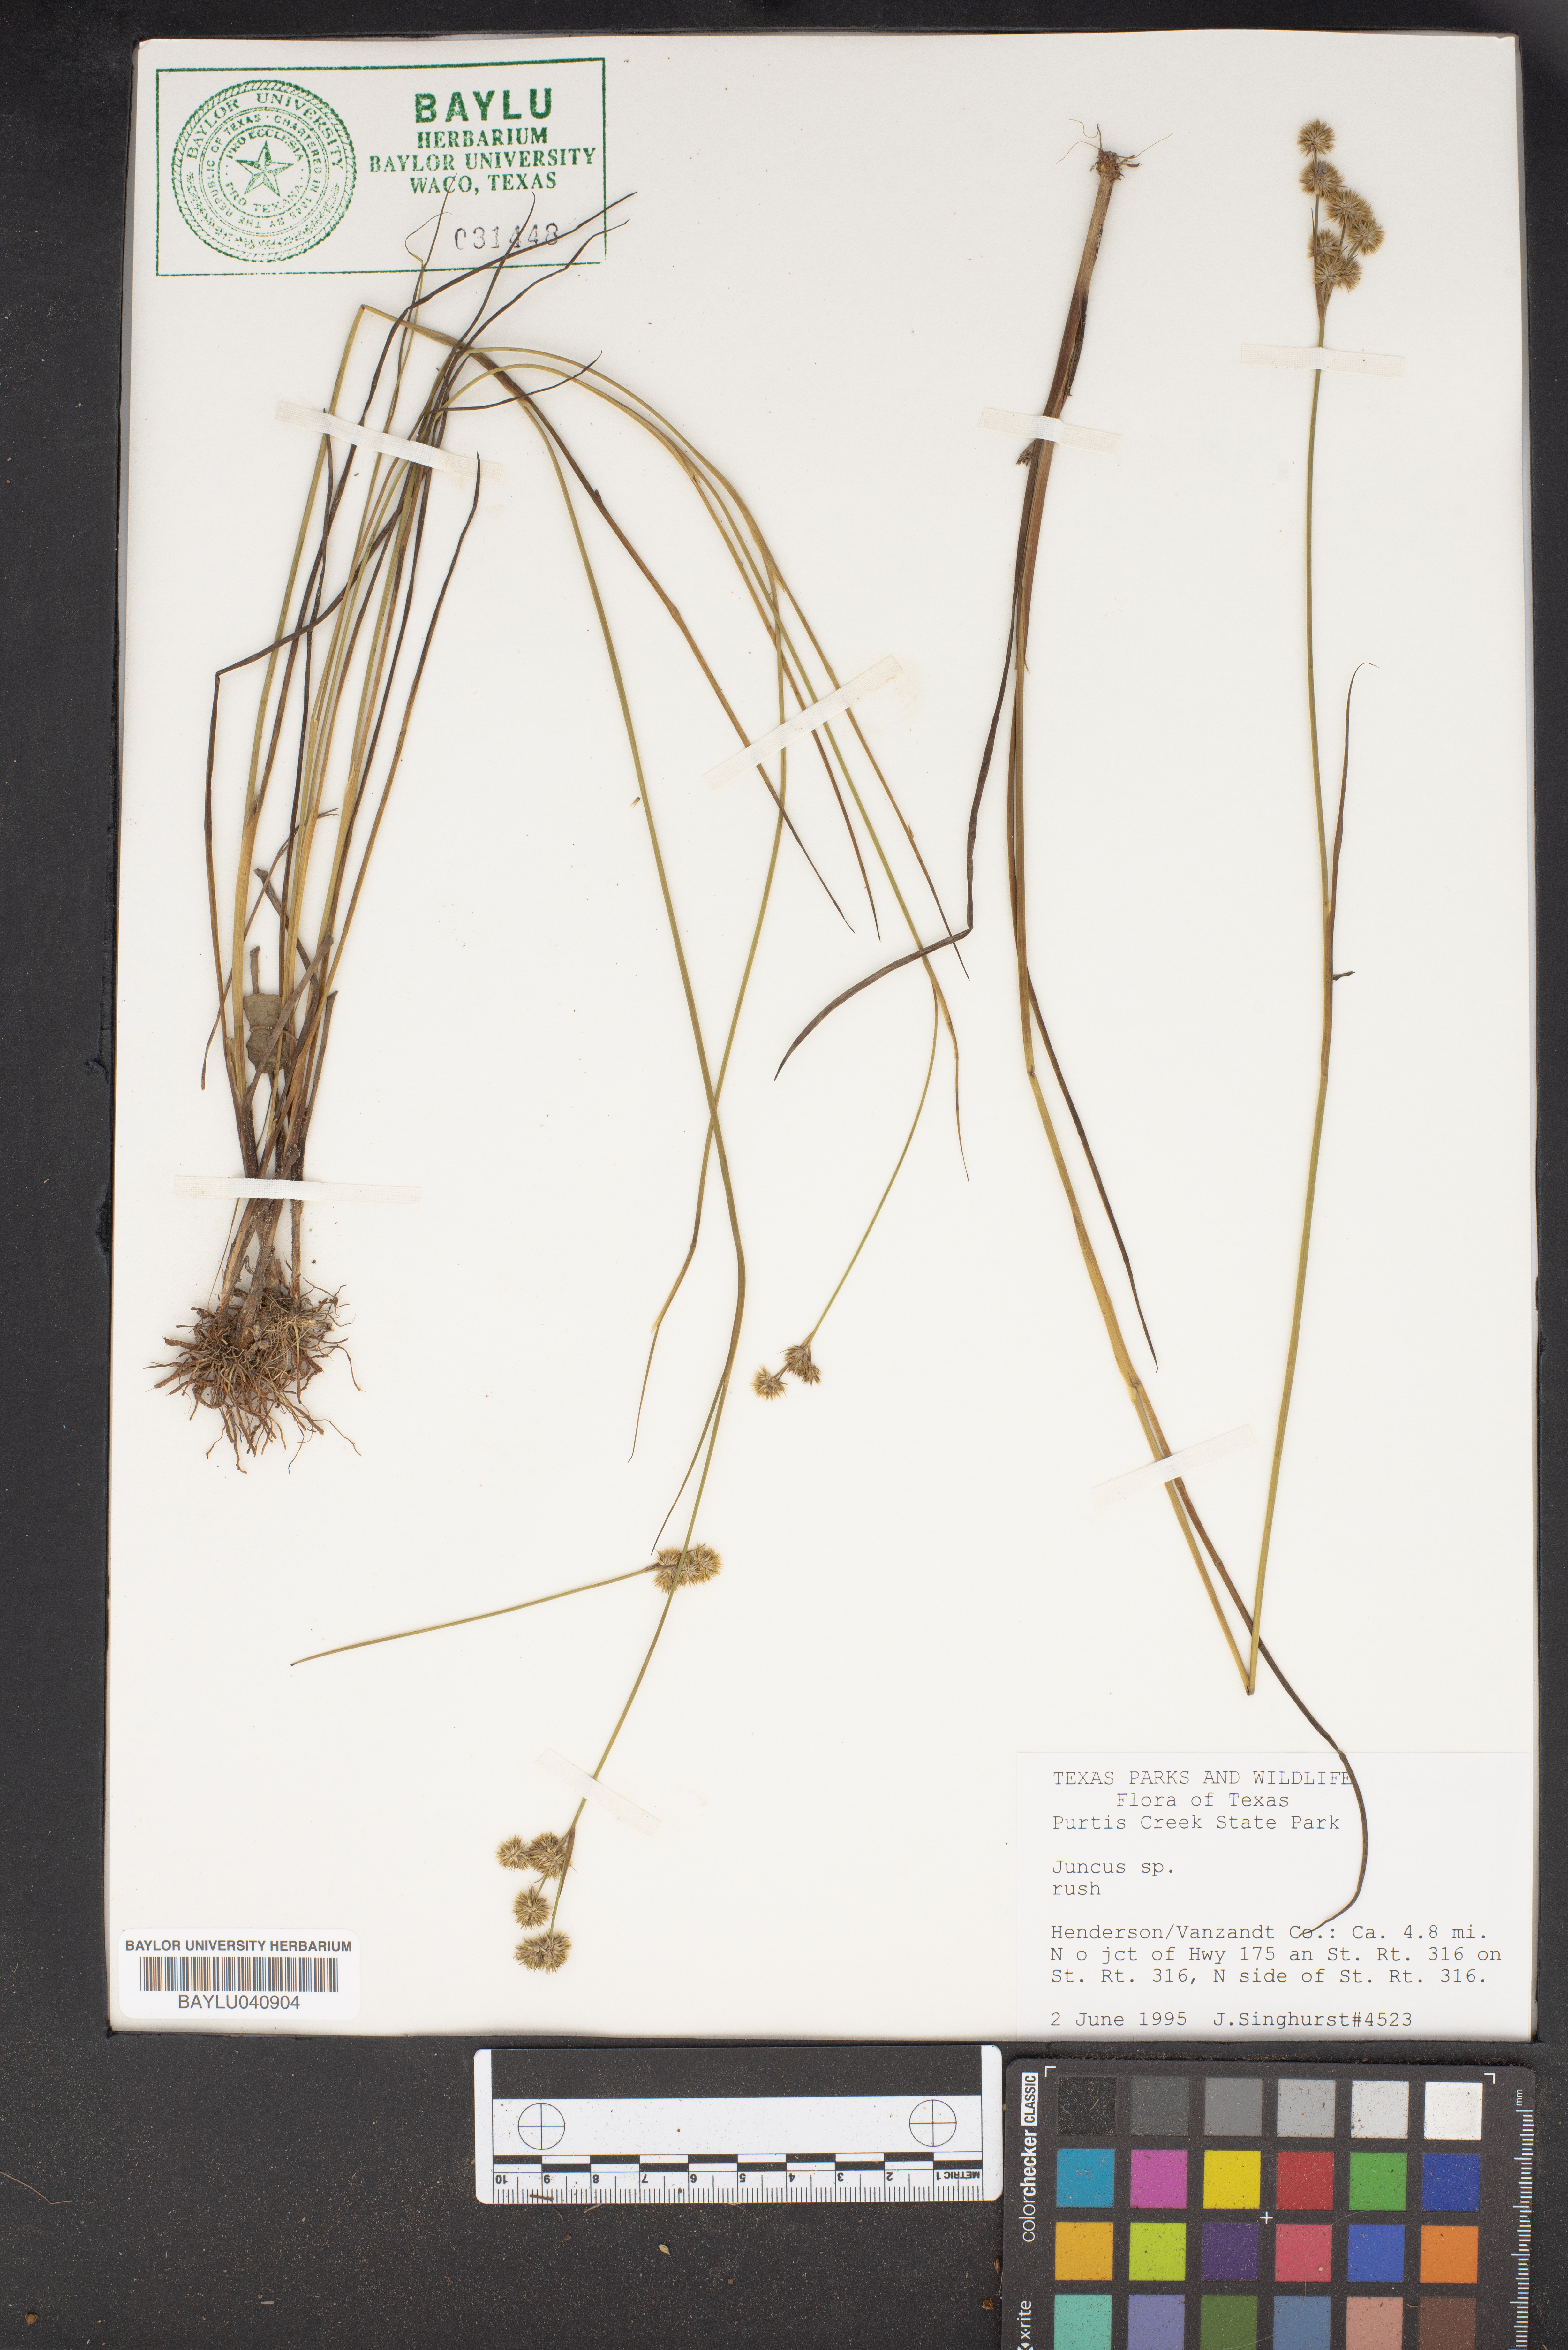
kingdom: Plantae
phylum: Tracheophyta
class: Liliopsida
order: Poales
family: Juncaceae
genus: Juncus
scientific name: Juncus
